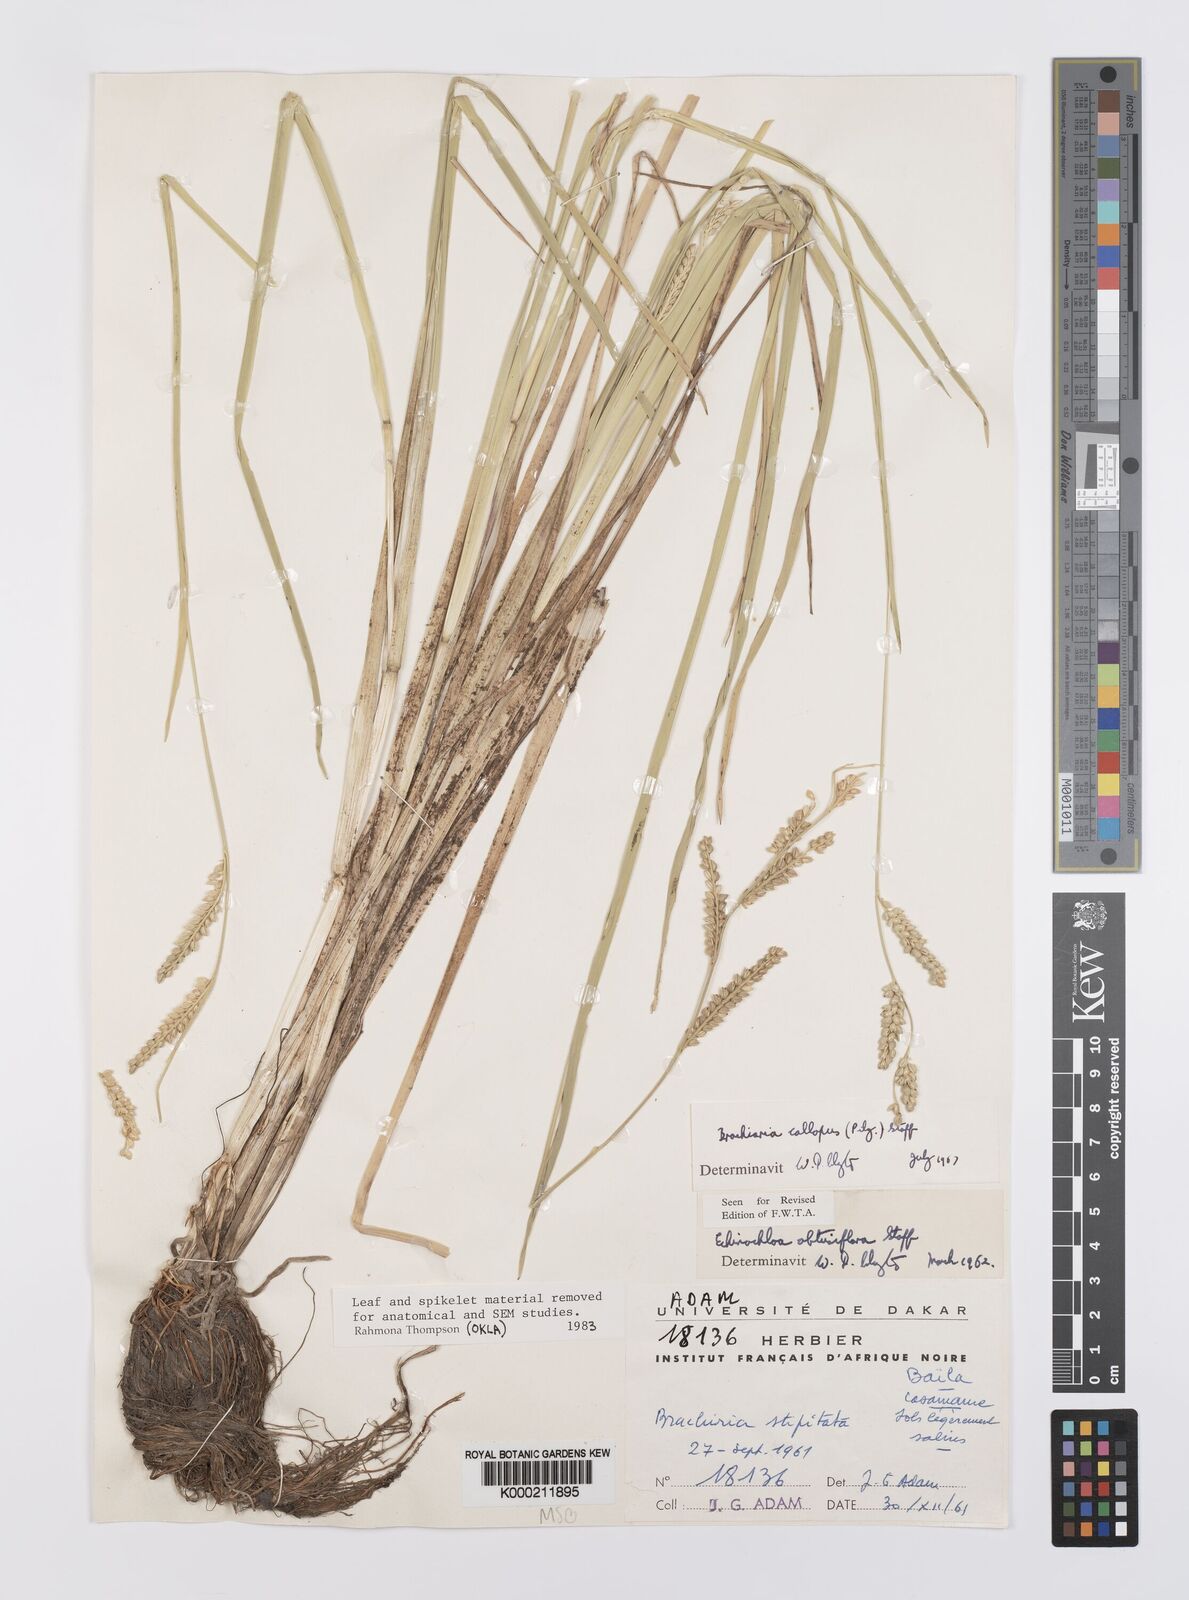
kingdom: Plantae
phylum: Tracheophyta
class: Liliopsida
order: Poales
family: Poaceae
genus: Echinochloa
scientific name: Echinochloa callopus
